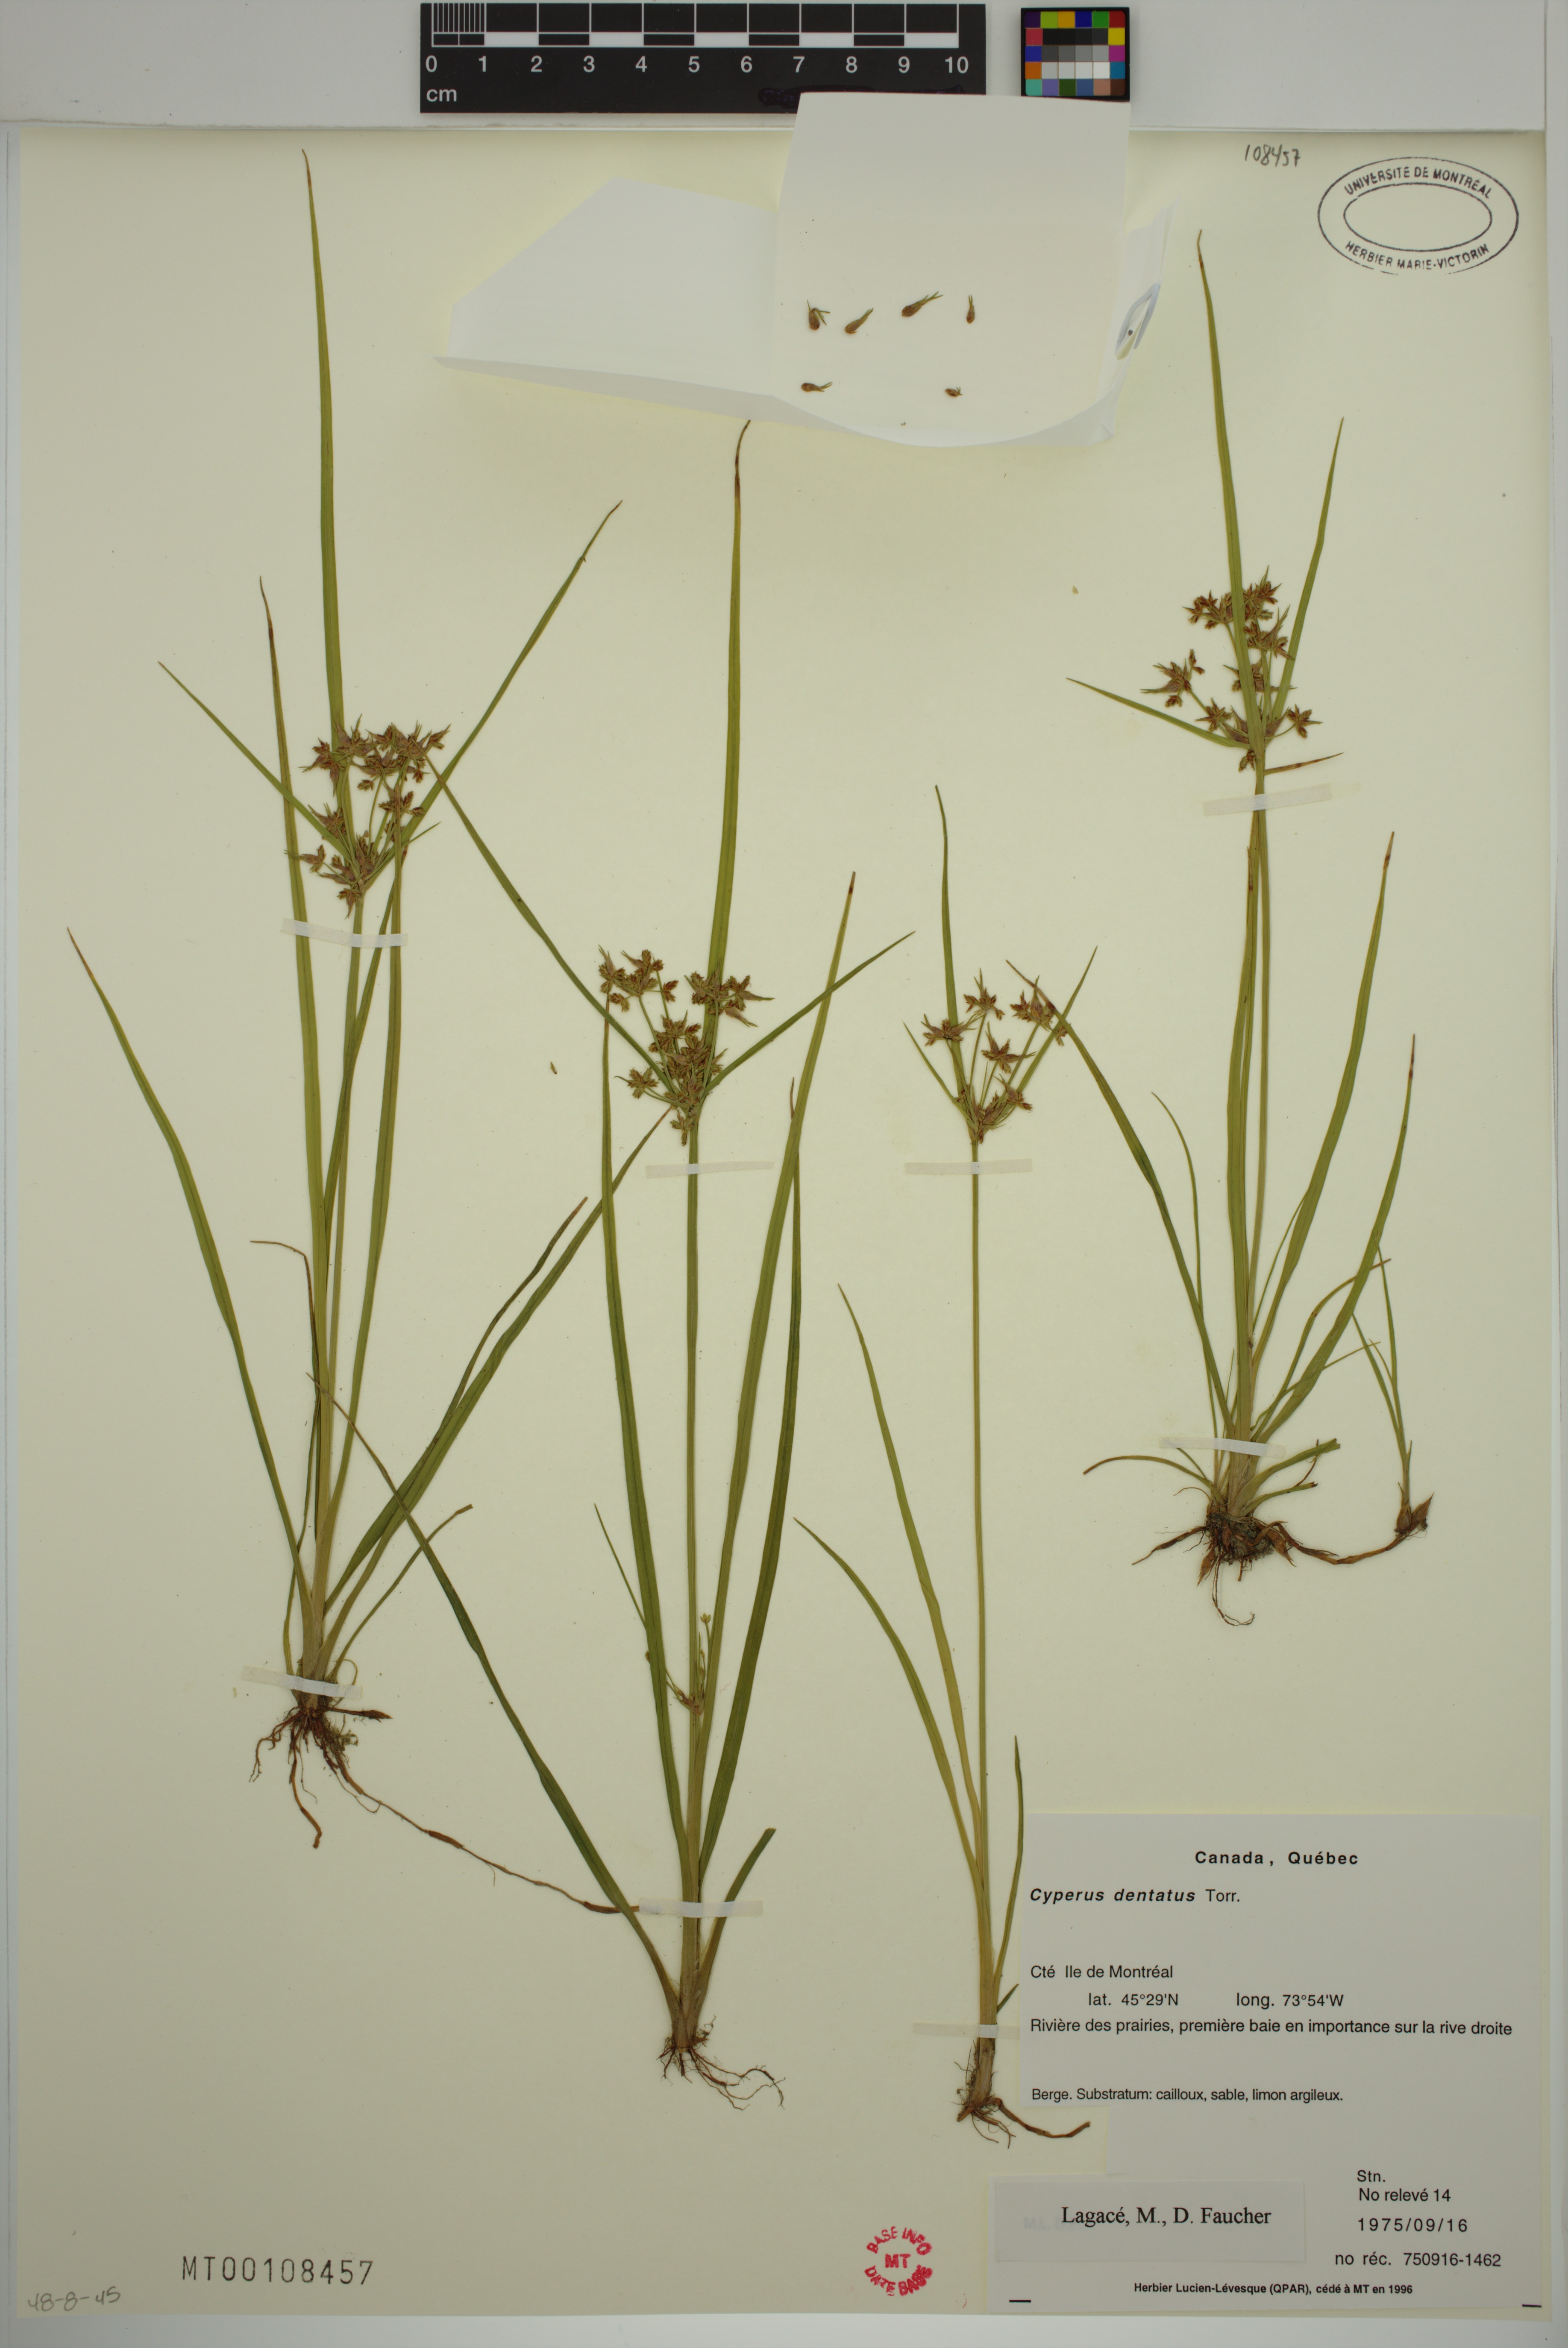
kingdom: Plantae
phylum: Tracheophyta
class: Liliopsida
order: Poales
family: Cyperaceae
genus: Cyperus
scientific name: Cyperus dentatus
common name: Dentate umbrella sedge
